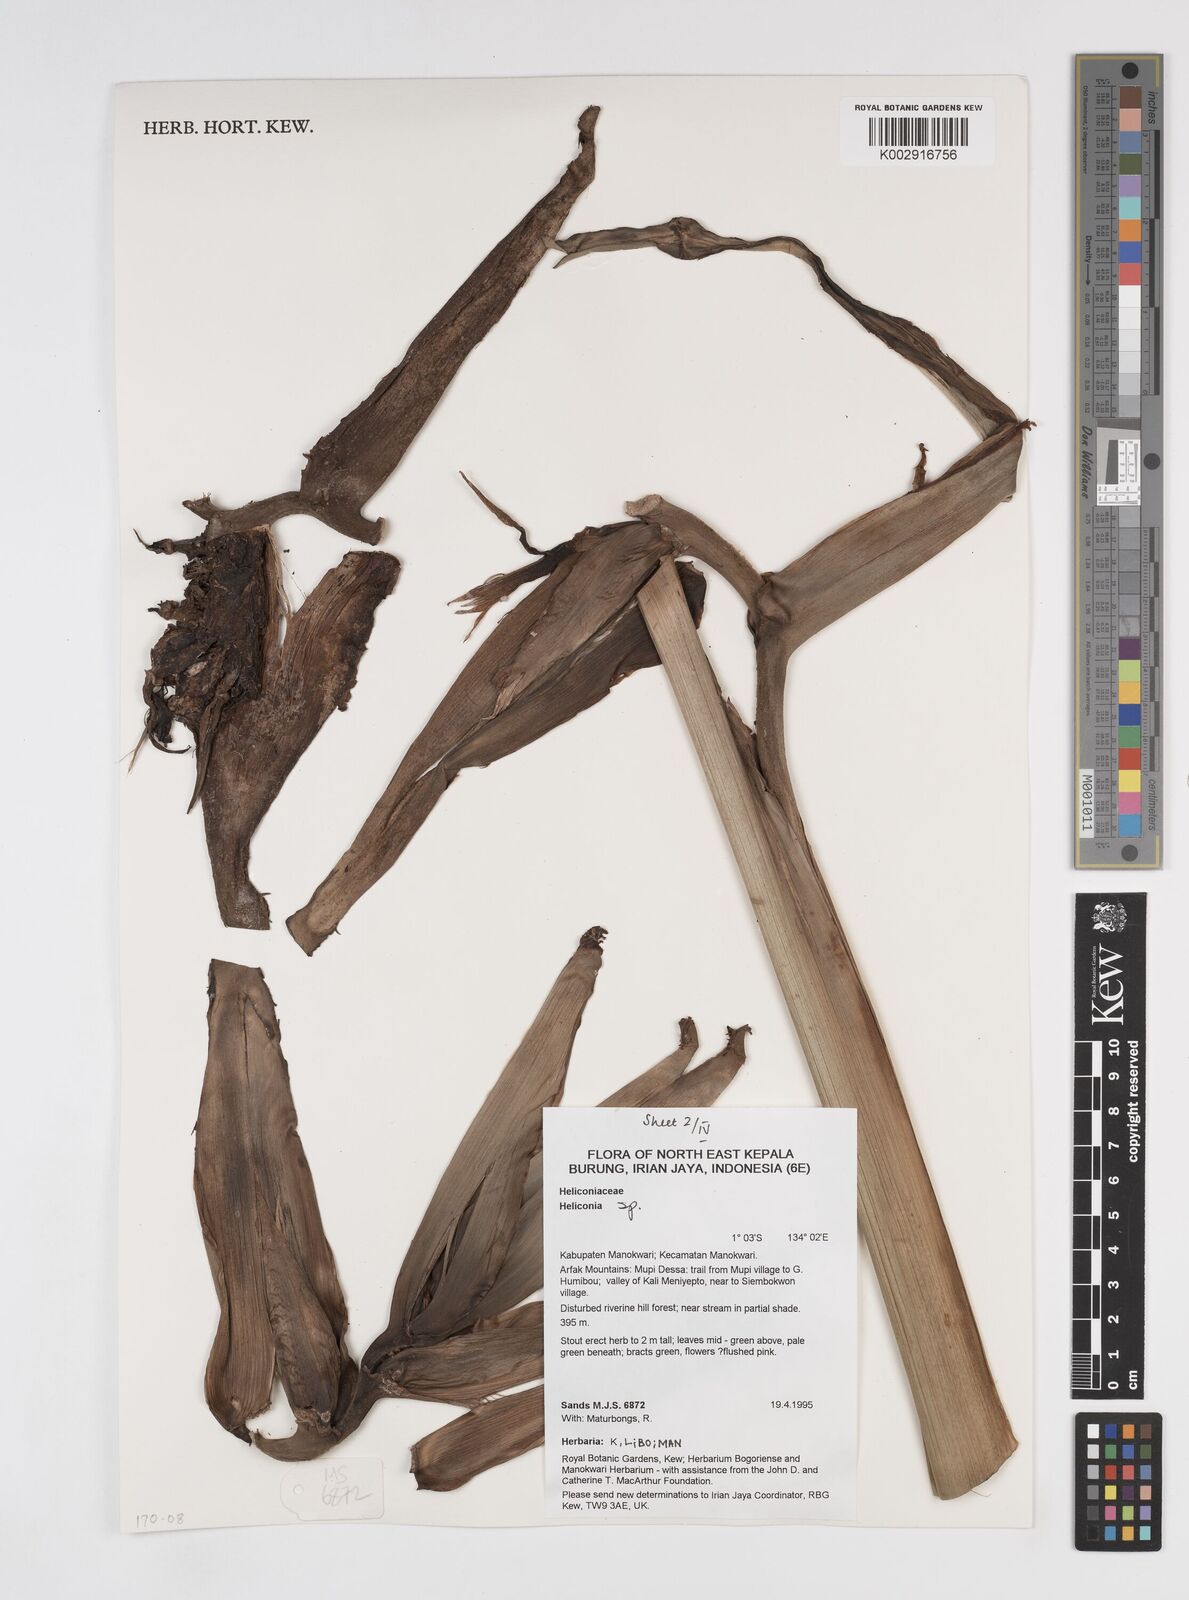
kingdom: Plantae
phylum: Tracheophyta
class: Liliopsida
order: Zingiberales
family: Heliconiaceae
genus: Heliconia
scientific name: Heliconia
